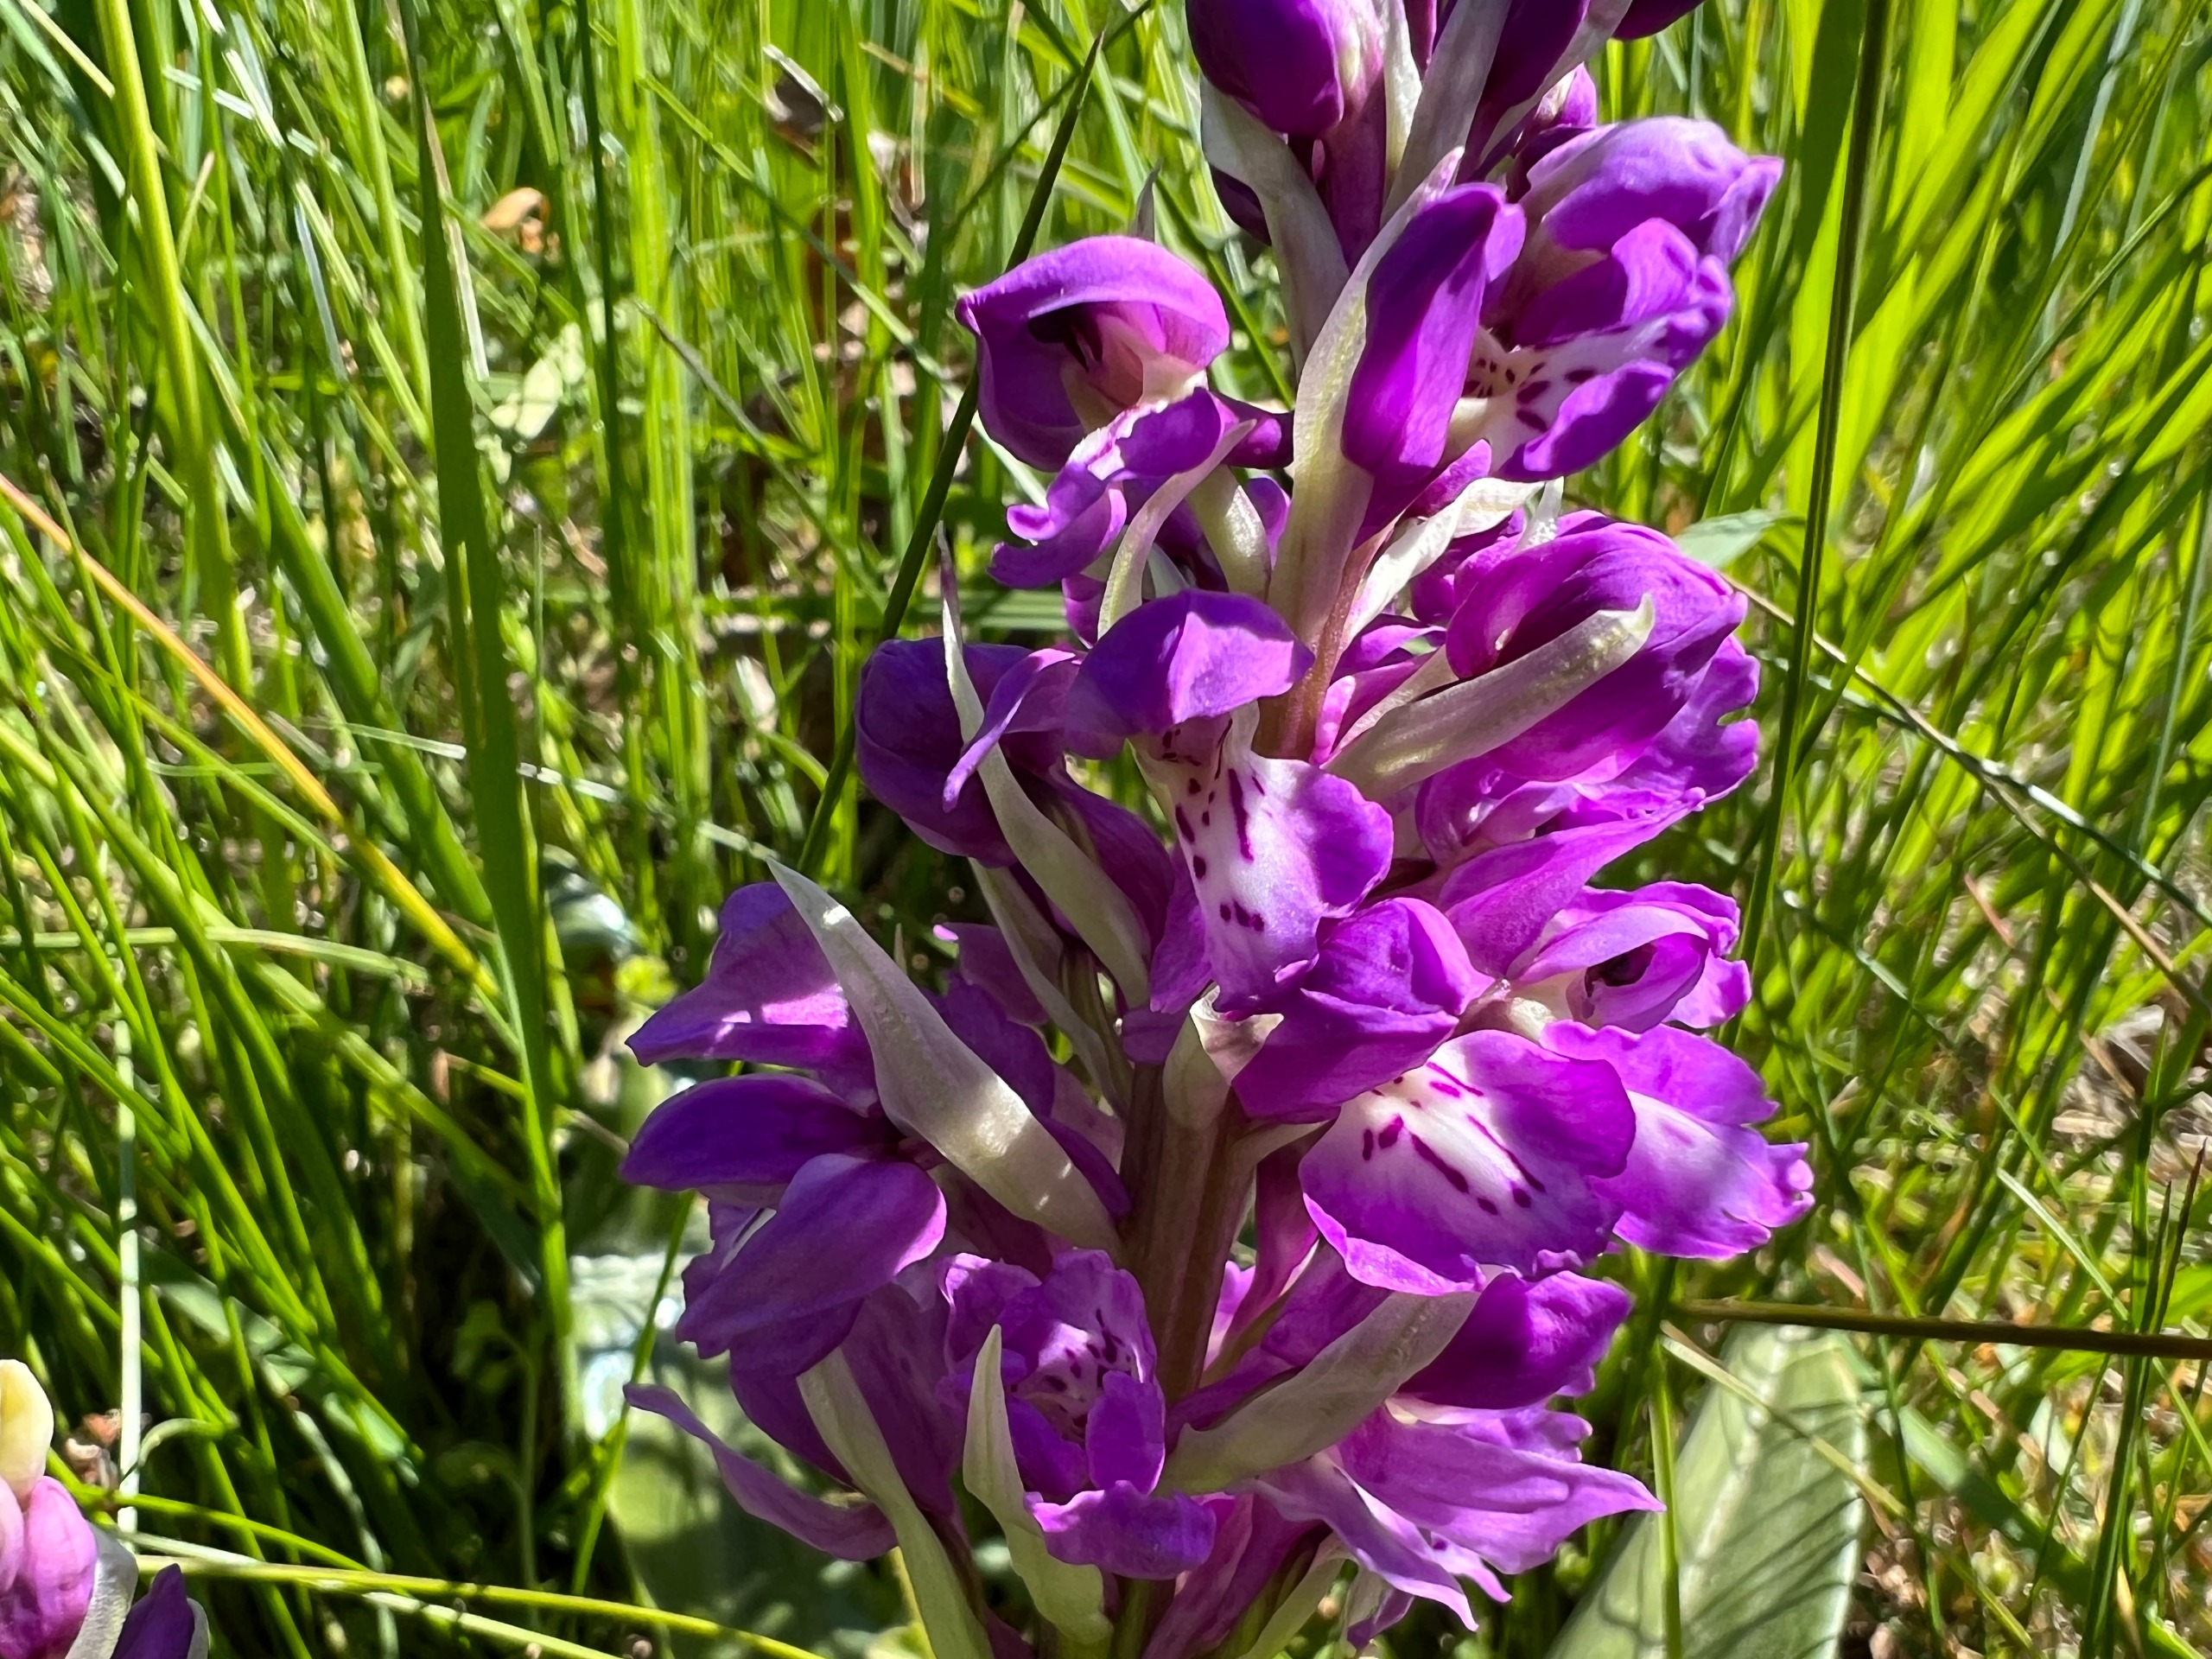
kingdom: Plantae
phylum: Tracheophyta
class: Liliopsida
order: Asparagales
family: Orchidaceae
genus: Orchis
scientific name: Orchis mascula
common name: Tyndakset gøgeurt
